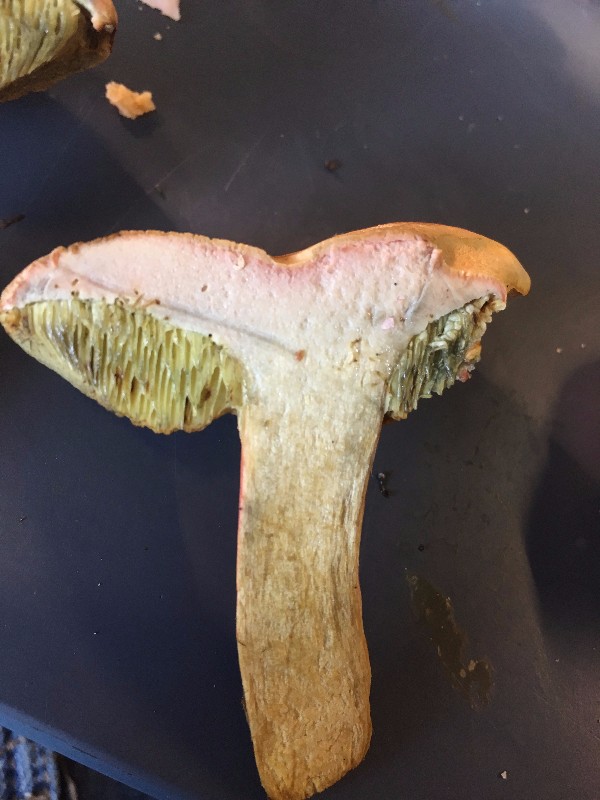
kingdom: Fungi
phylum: Basidiomycota
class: Agaricomycetes
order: Boletales
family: Boletaceae
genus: Hortiboletus
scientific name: Hortiboletus bubalinus
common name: aurora-rørhat
